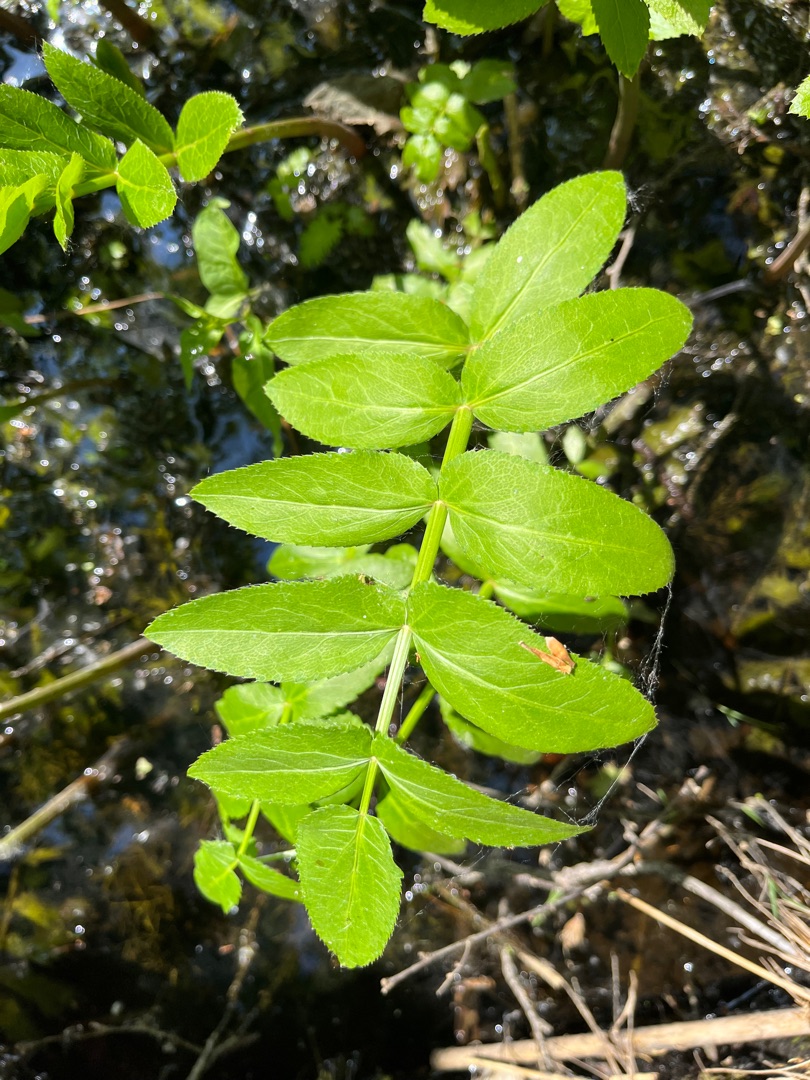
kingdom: Plantae
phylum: Tracheophyta
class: Magnoliopsida
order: Apiales
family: Apiaceae
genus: Berula
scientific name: Berula erecta
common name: Sideskærm
